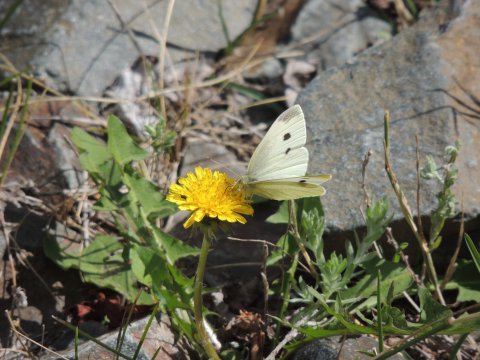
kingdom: Animalia
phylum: Arthropoda
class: Insecta
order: Lepidoptera
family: Pieridae
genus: Pieris
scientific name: Pieris rapae
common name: Cabbage White
